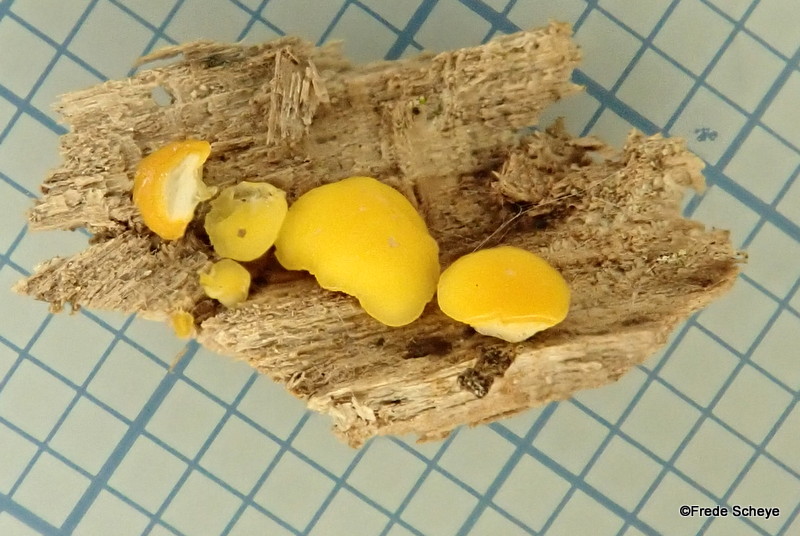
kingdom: Fungi
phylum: Ascomycota
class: Leotiomycetes
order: Helotiales
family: Pezizellaceae
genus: Calycina
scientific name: Calycina citrina
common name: almindelig gulskive
